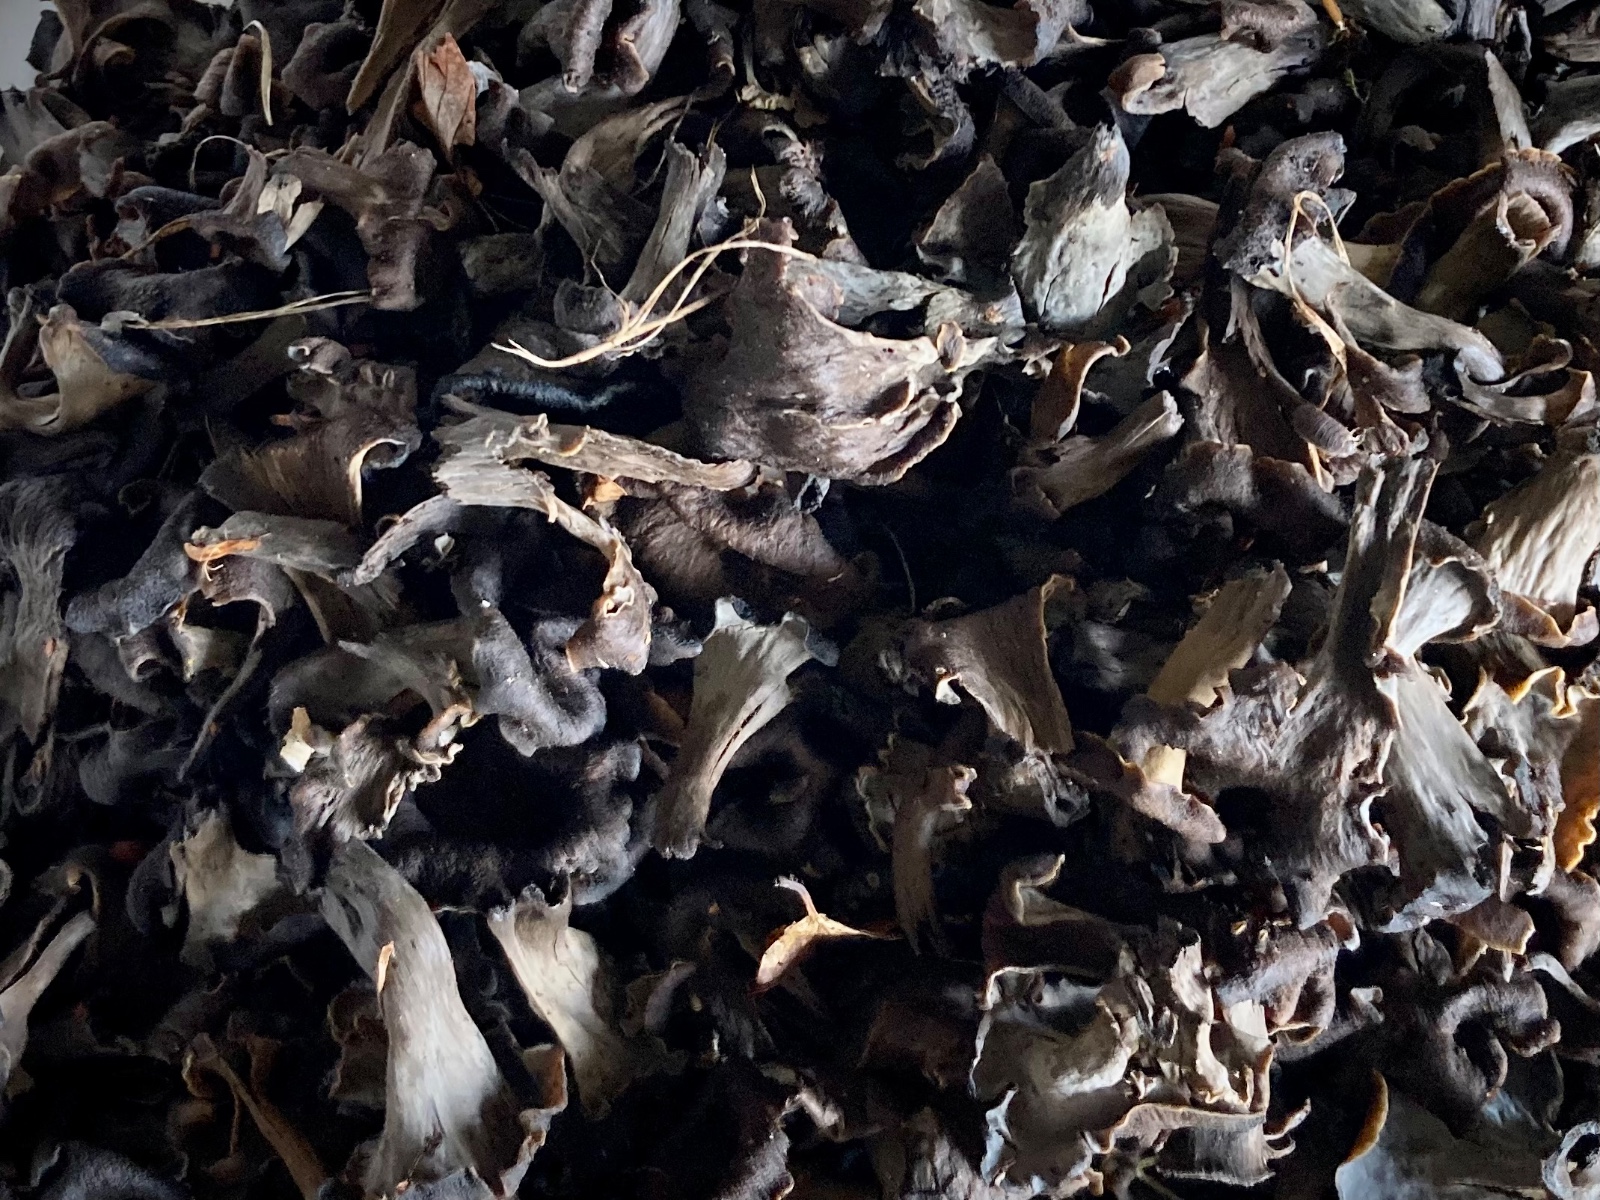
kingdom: Fungi
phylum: Basidiomycota
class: Agaricomycetes
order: Cantharellales
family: Hydnaceae
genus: Craterellus
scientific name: Craterellus cornucopioides
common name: trompetsvamp
